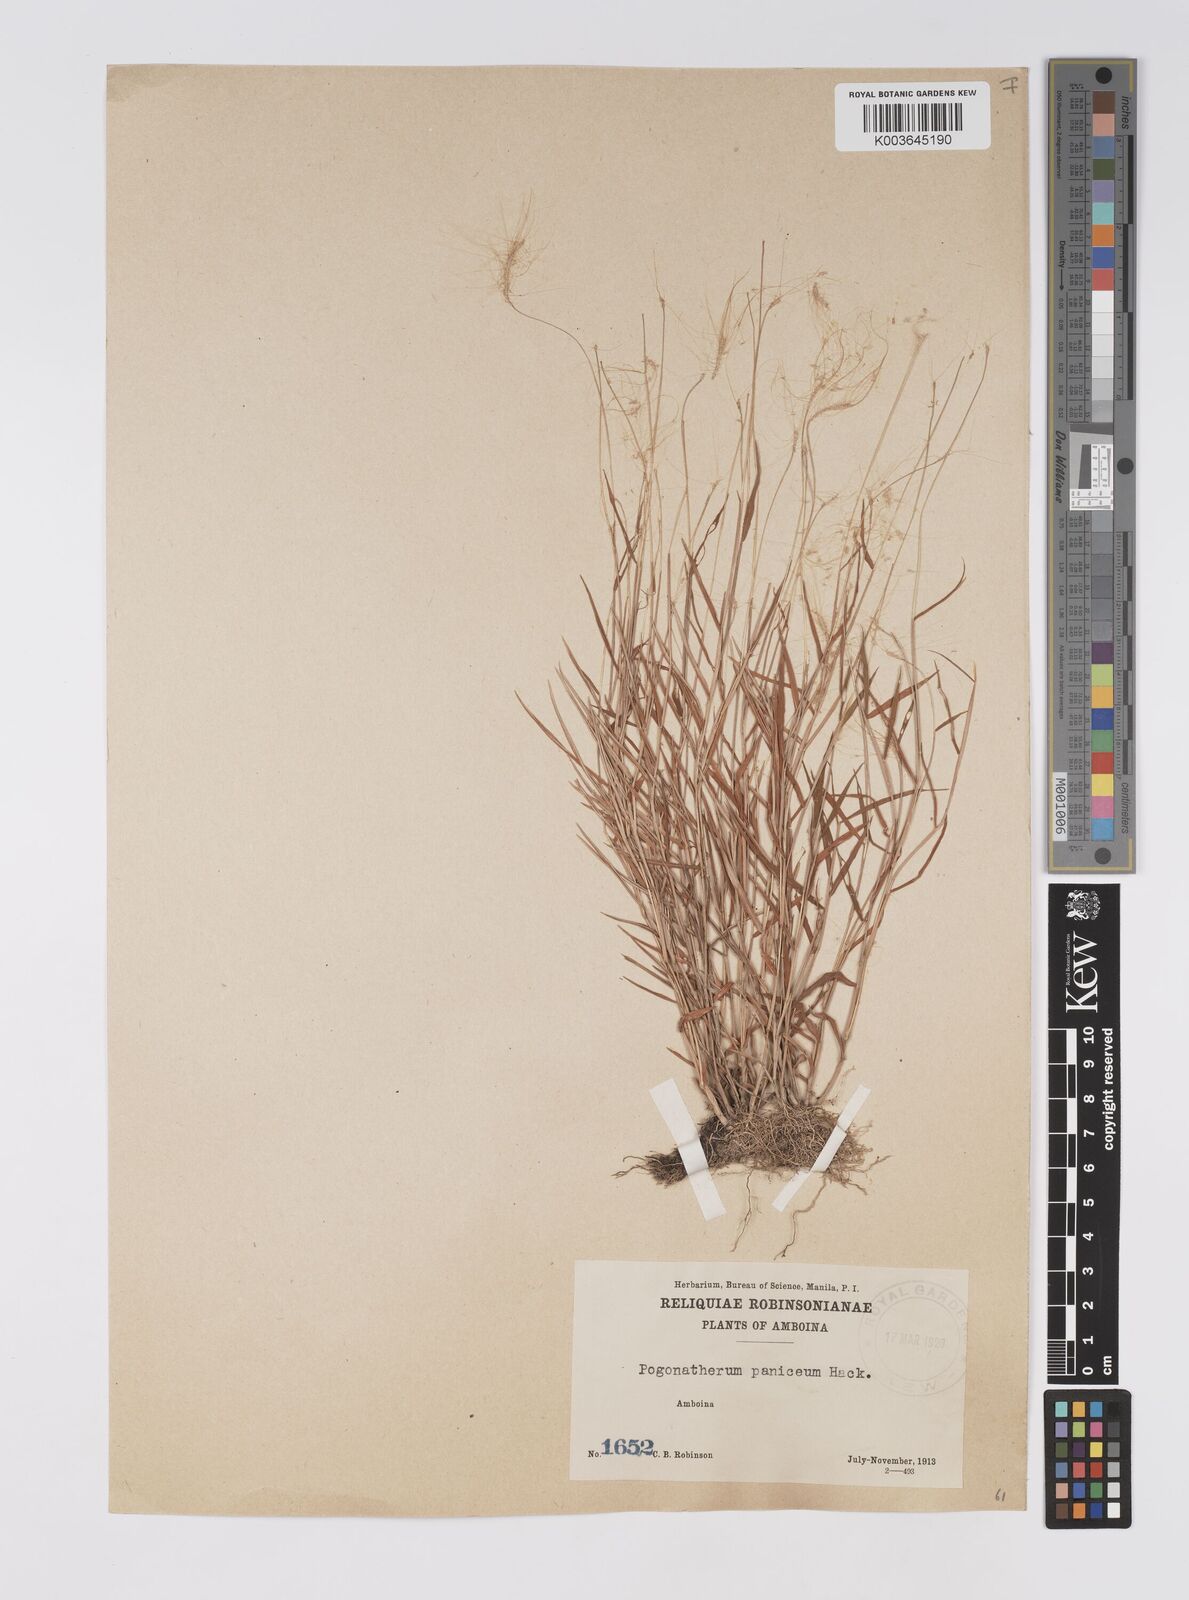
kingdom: Plantae
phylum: Tracheophyta
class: Liliopsida
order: Poales
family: Poaceae
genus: Pogonatherum
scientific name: Pogonatherum crinitum
